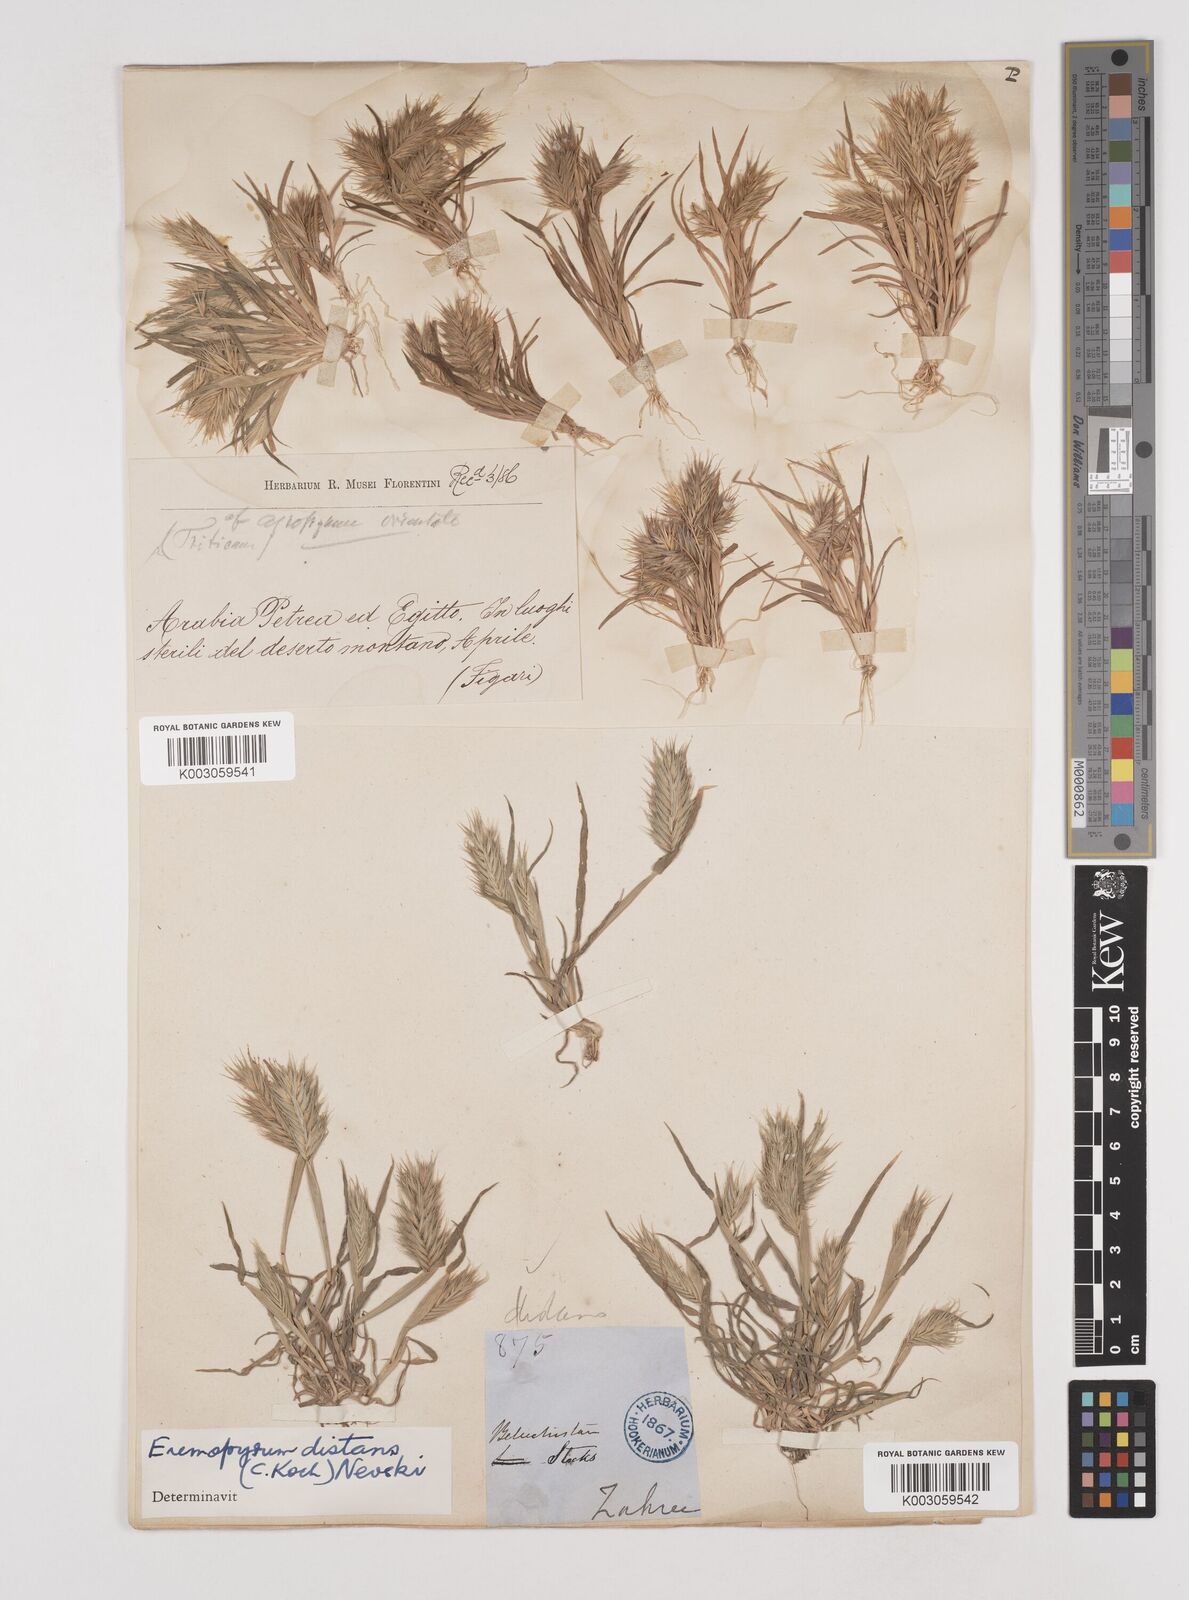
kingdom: Plantae
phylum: Tracheophyta
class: Liliopsida
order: Poales
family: Poaceae
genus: Eremopyrum
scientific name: Eremopyrum distans
